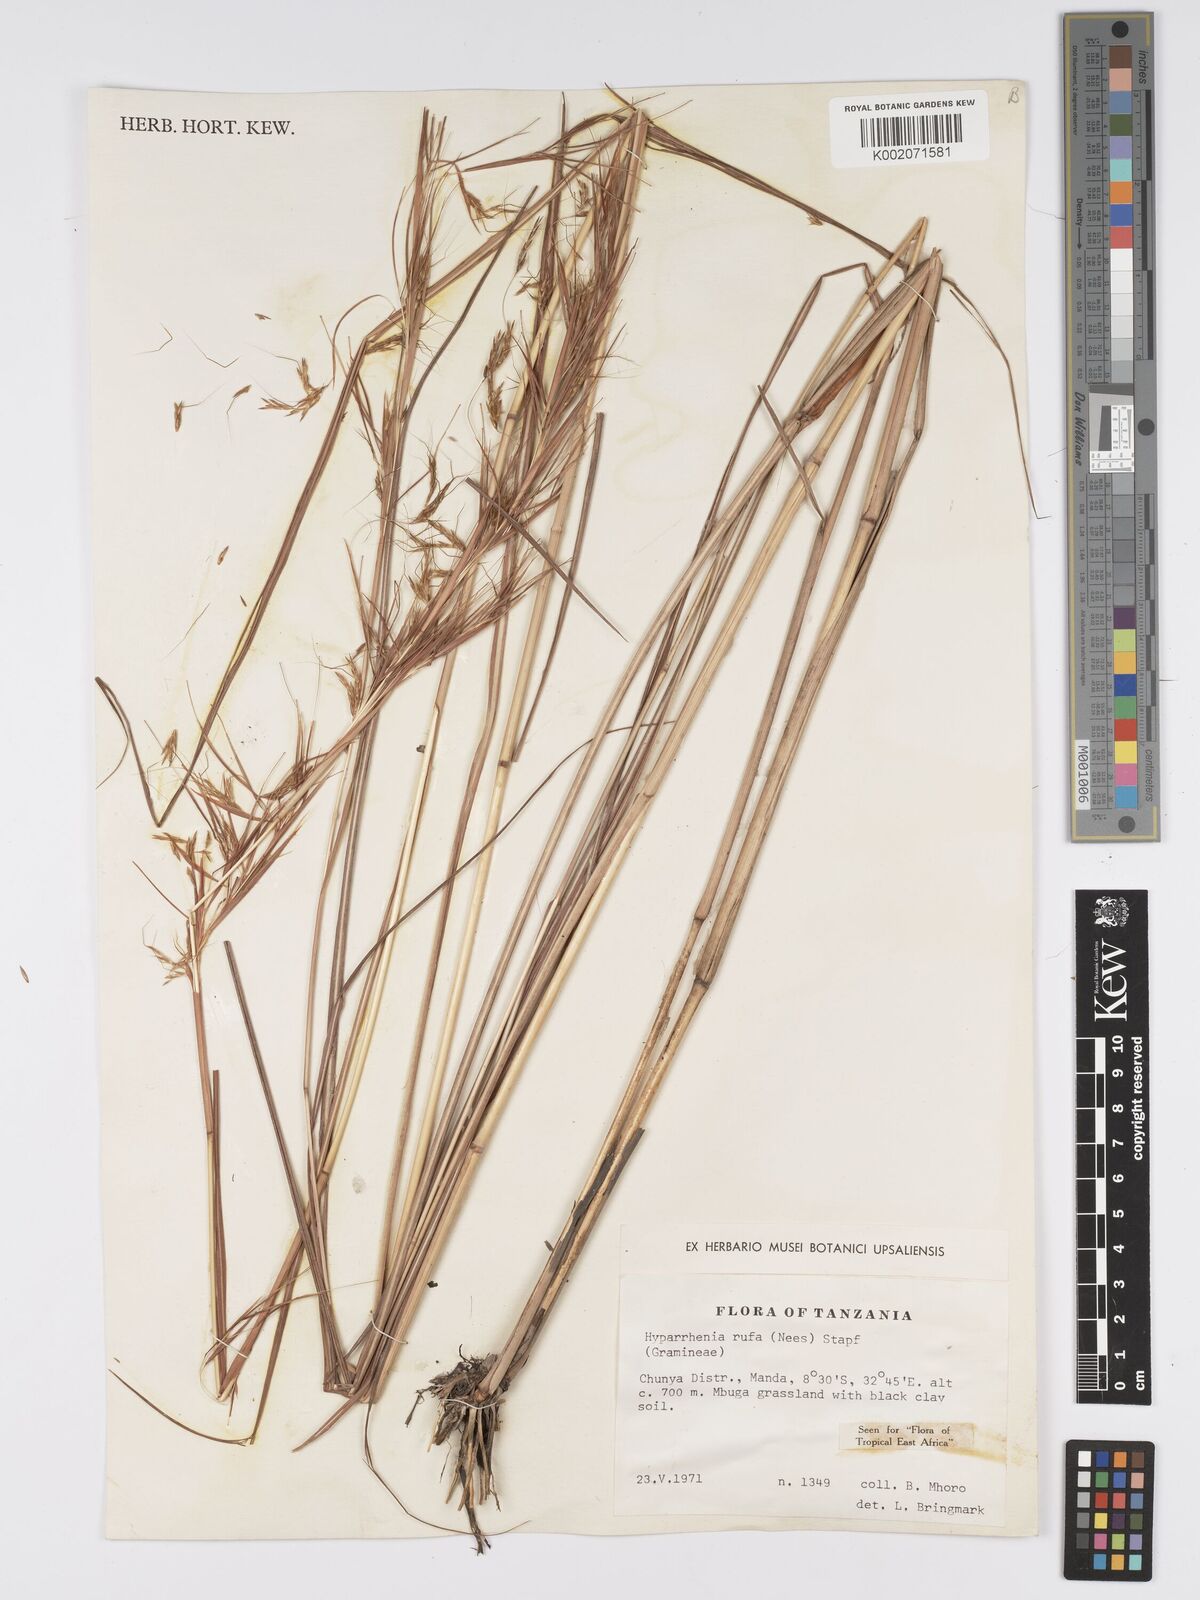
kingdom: Plantae
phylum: Tracheophyta
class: Liliopsida
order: Poales
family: Poaceae
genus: Hyparrhenia
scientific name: Hyparrhenia rufa
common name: Jaraguagrass
